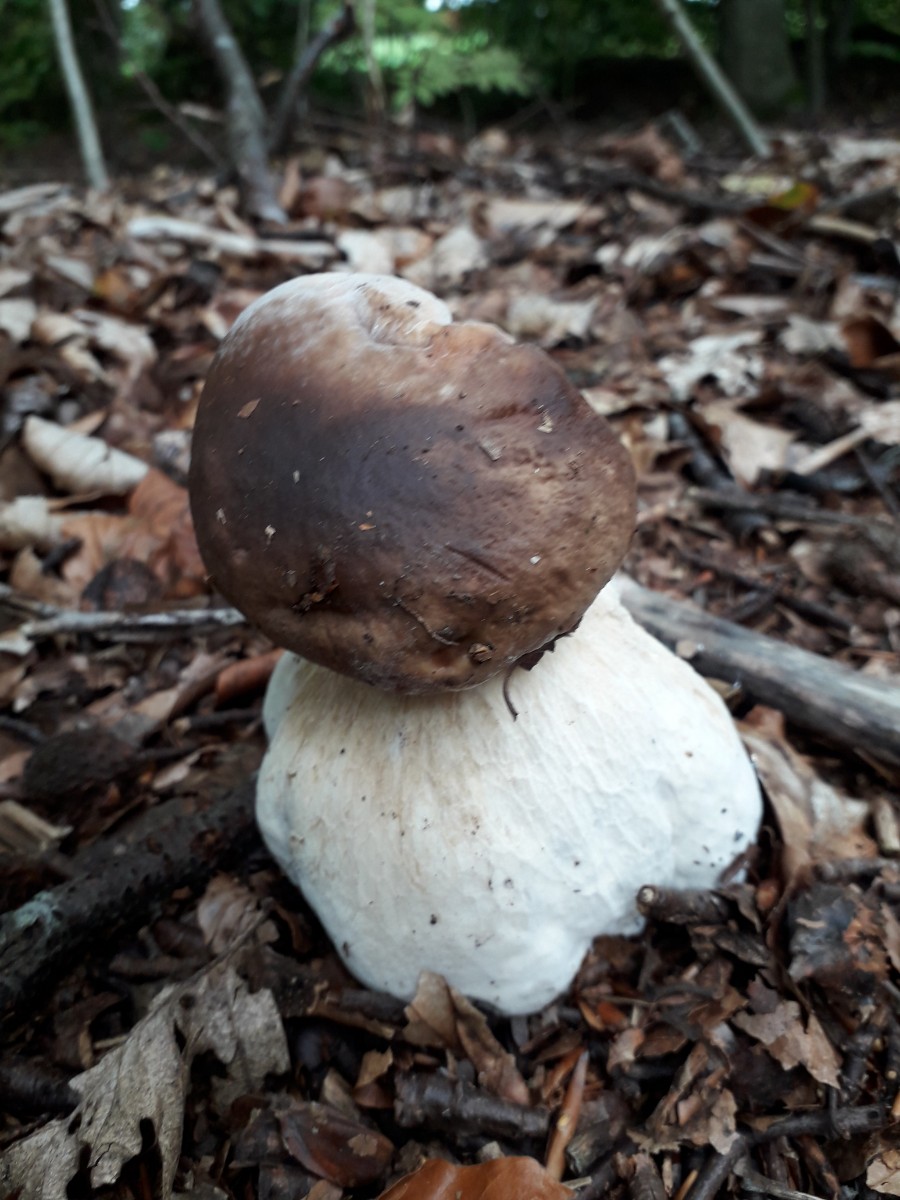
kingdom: Fungi
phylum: Basidiomycota
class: Agaricomycetes
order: Boletales
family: Boletaceae
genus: Boletus
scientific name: Boletus edulis
